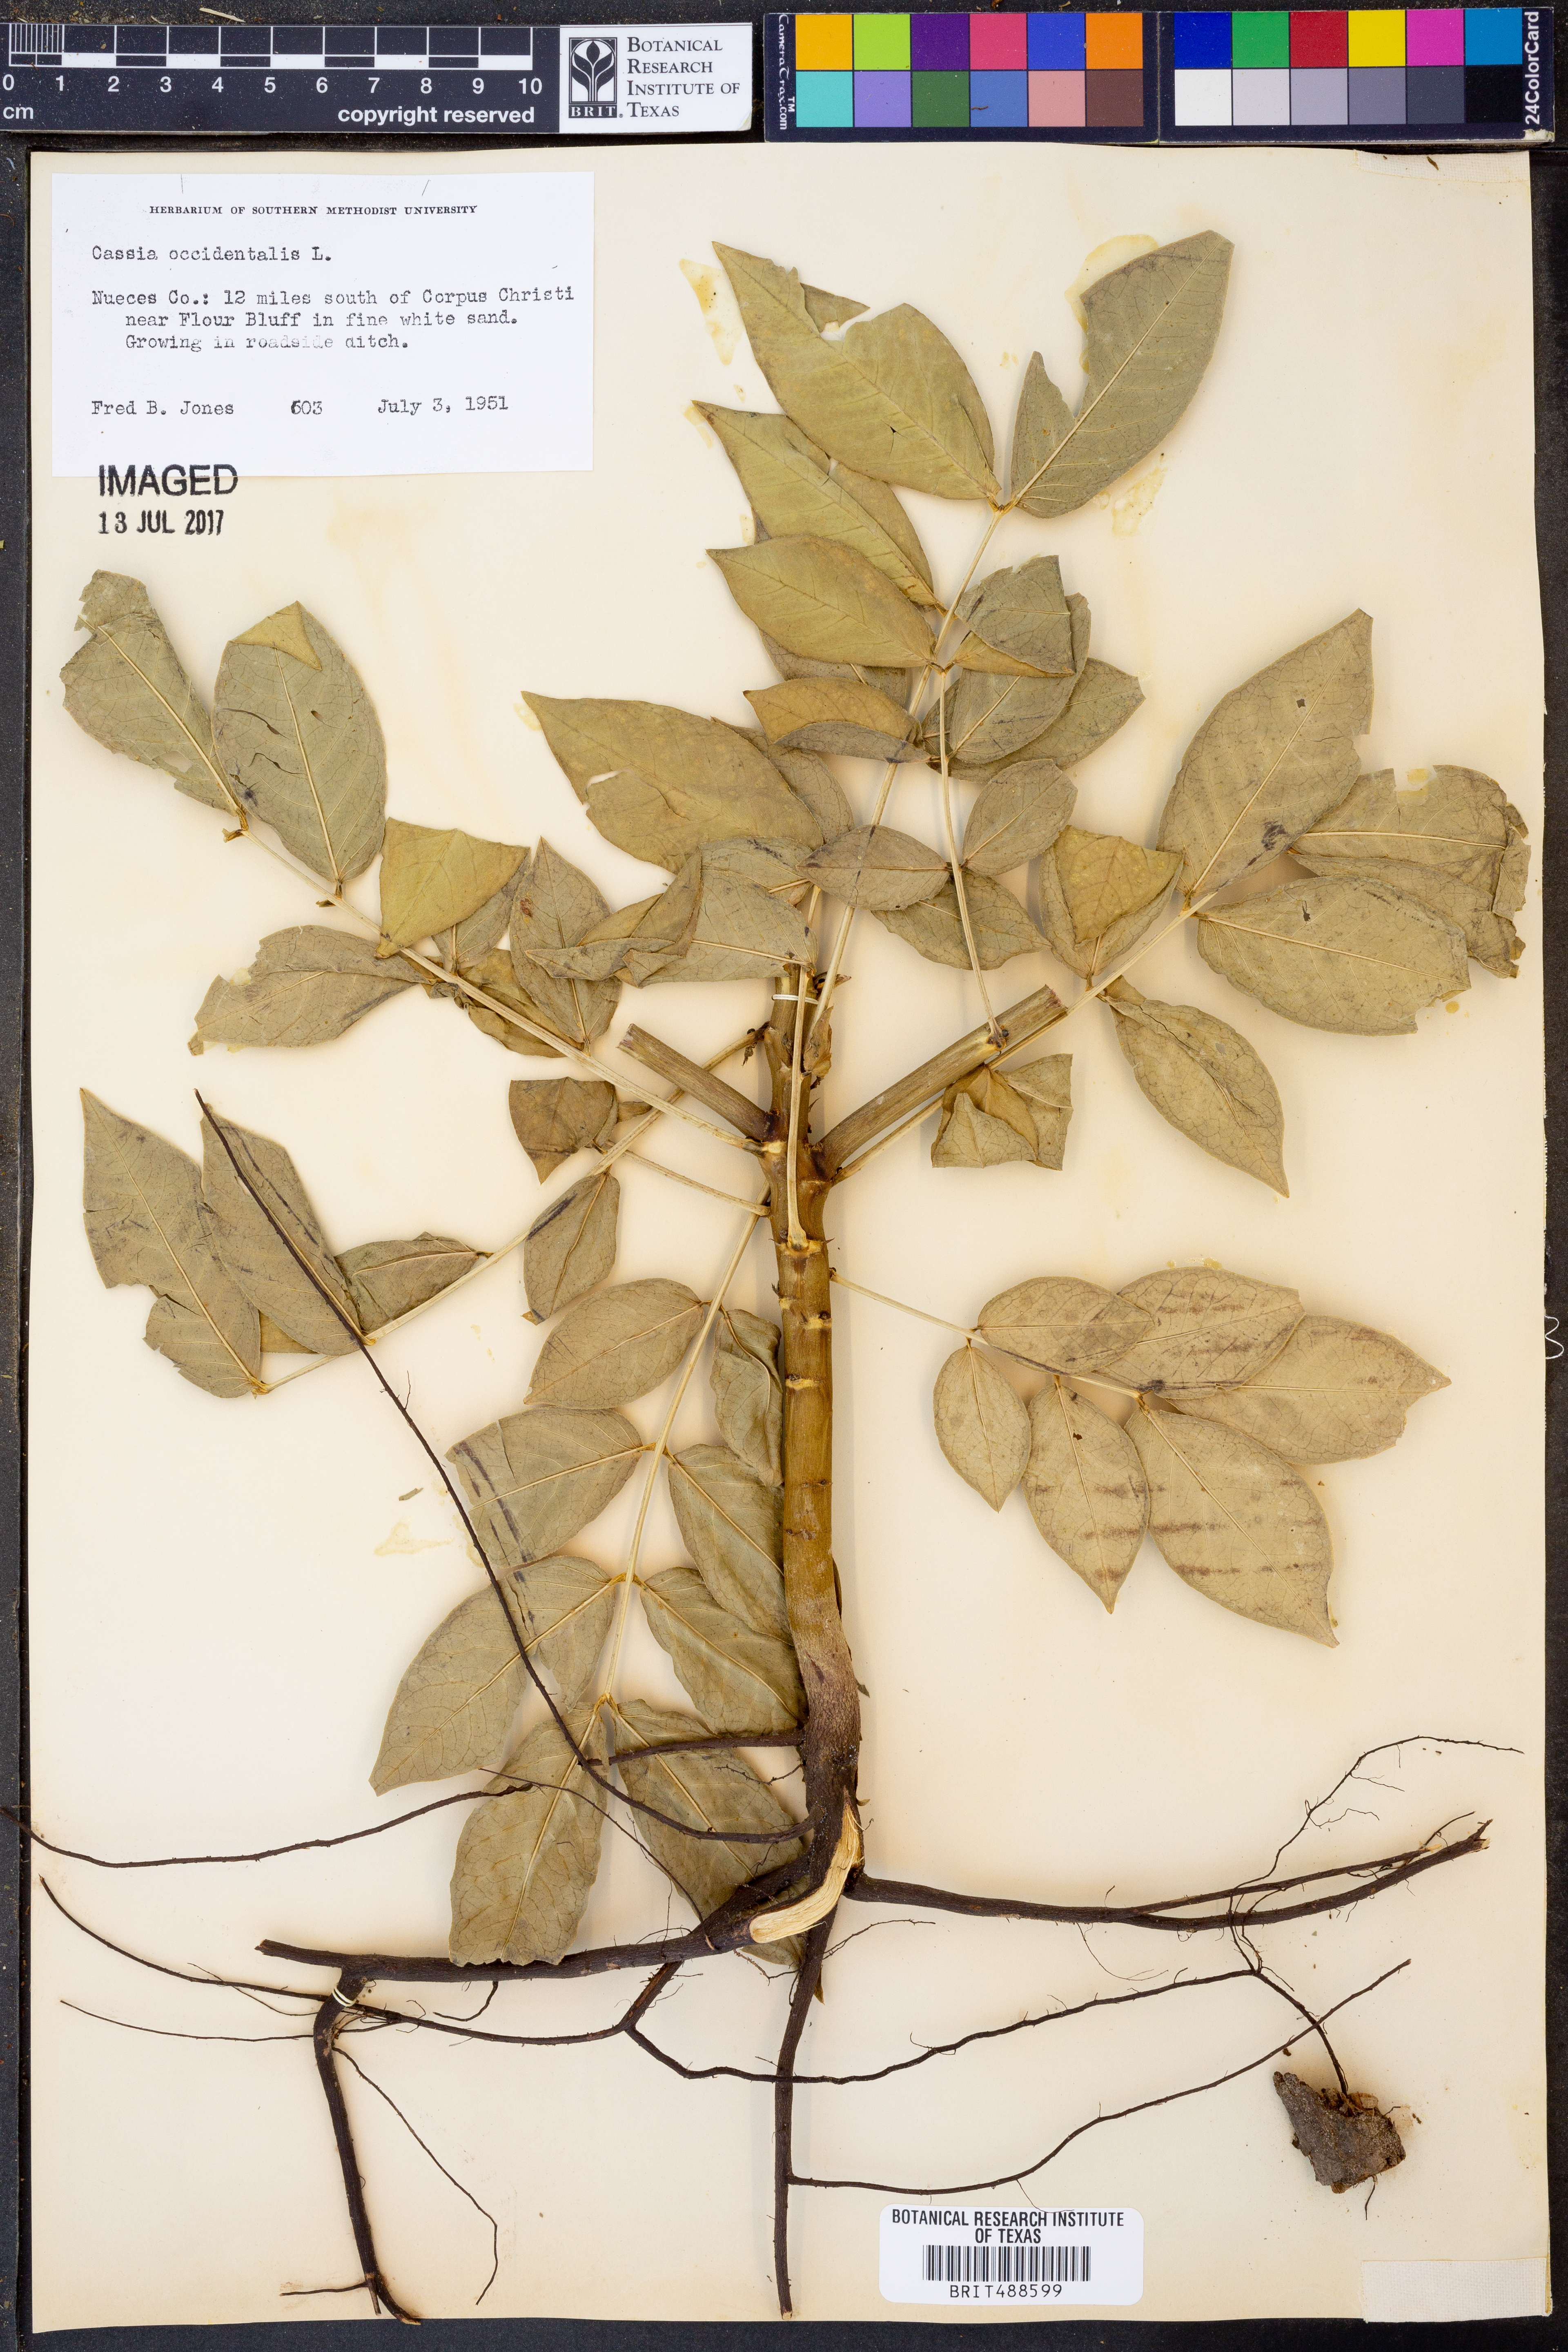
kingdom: Plantae
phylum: Tracheophyta
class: Magnoliopsida
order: Fabales
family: Fabaceae
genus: Senna
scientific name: Senna occidentalis
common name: Septicweed
